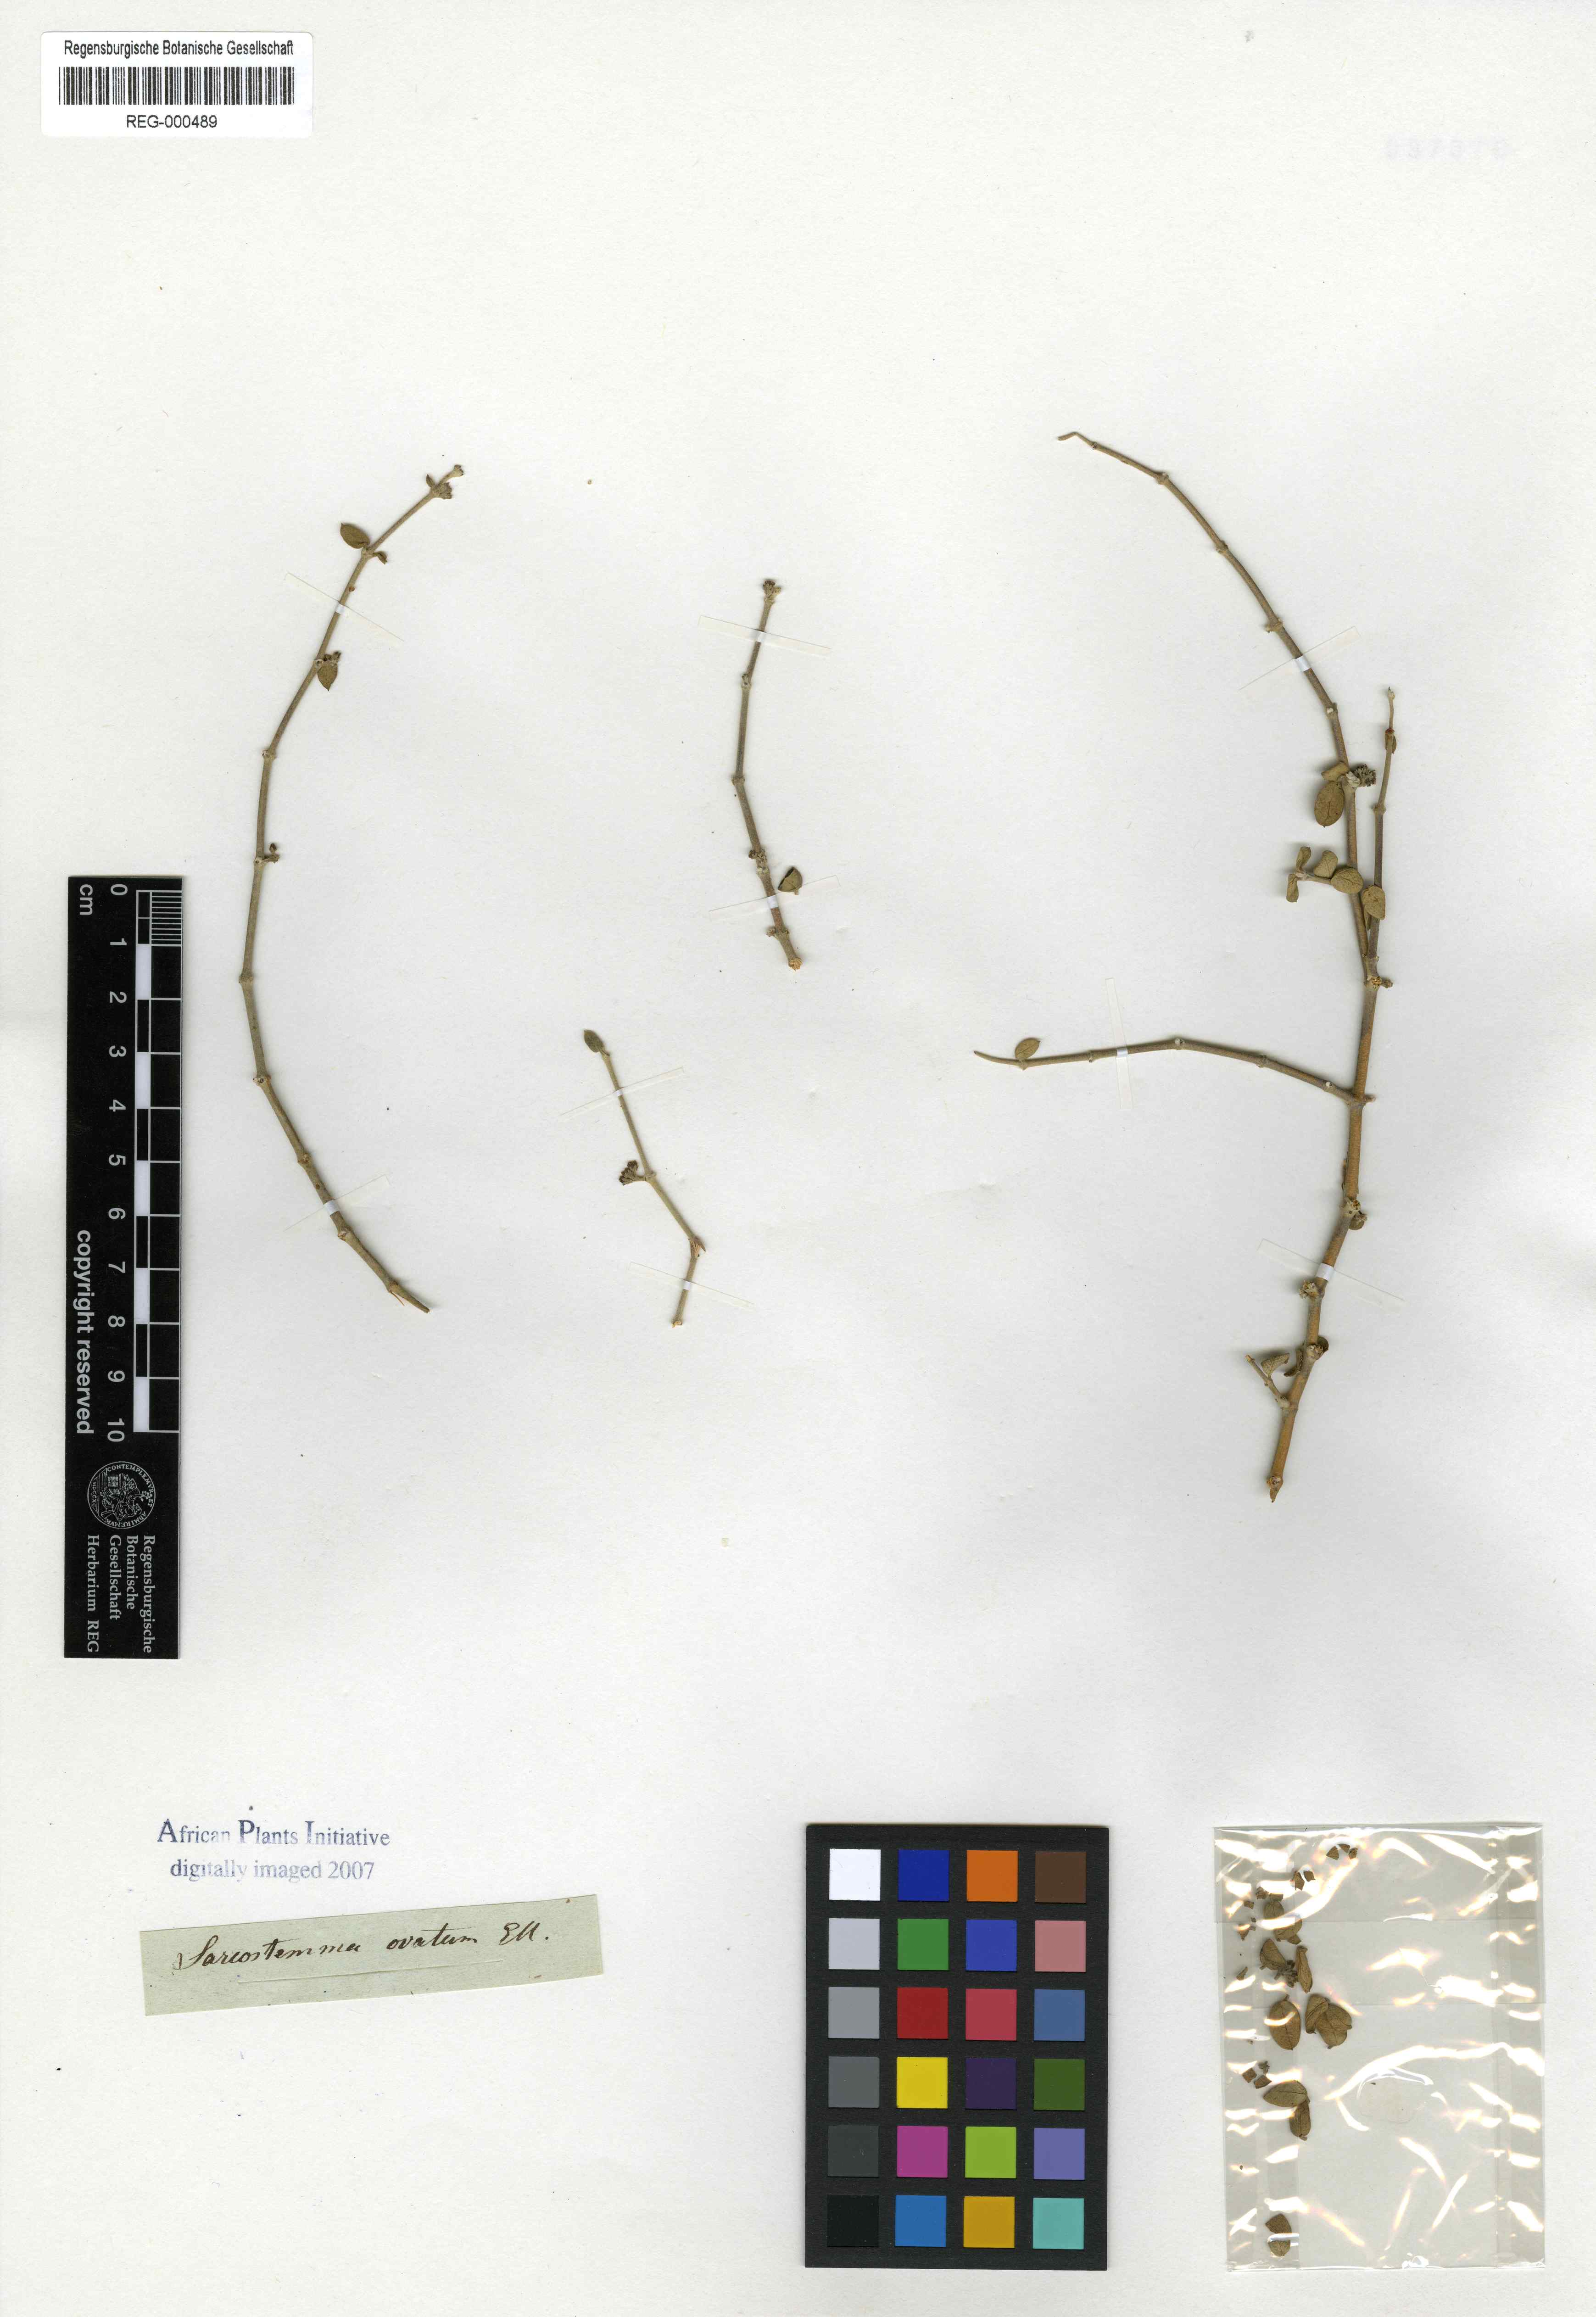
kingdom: Plantae
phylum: Tracheophyta
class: Magnoliopsida
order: Gentianales
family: Apocynaceae
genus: Cynanchum
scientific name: Cynanchum meyeri
